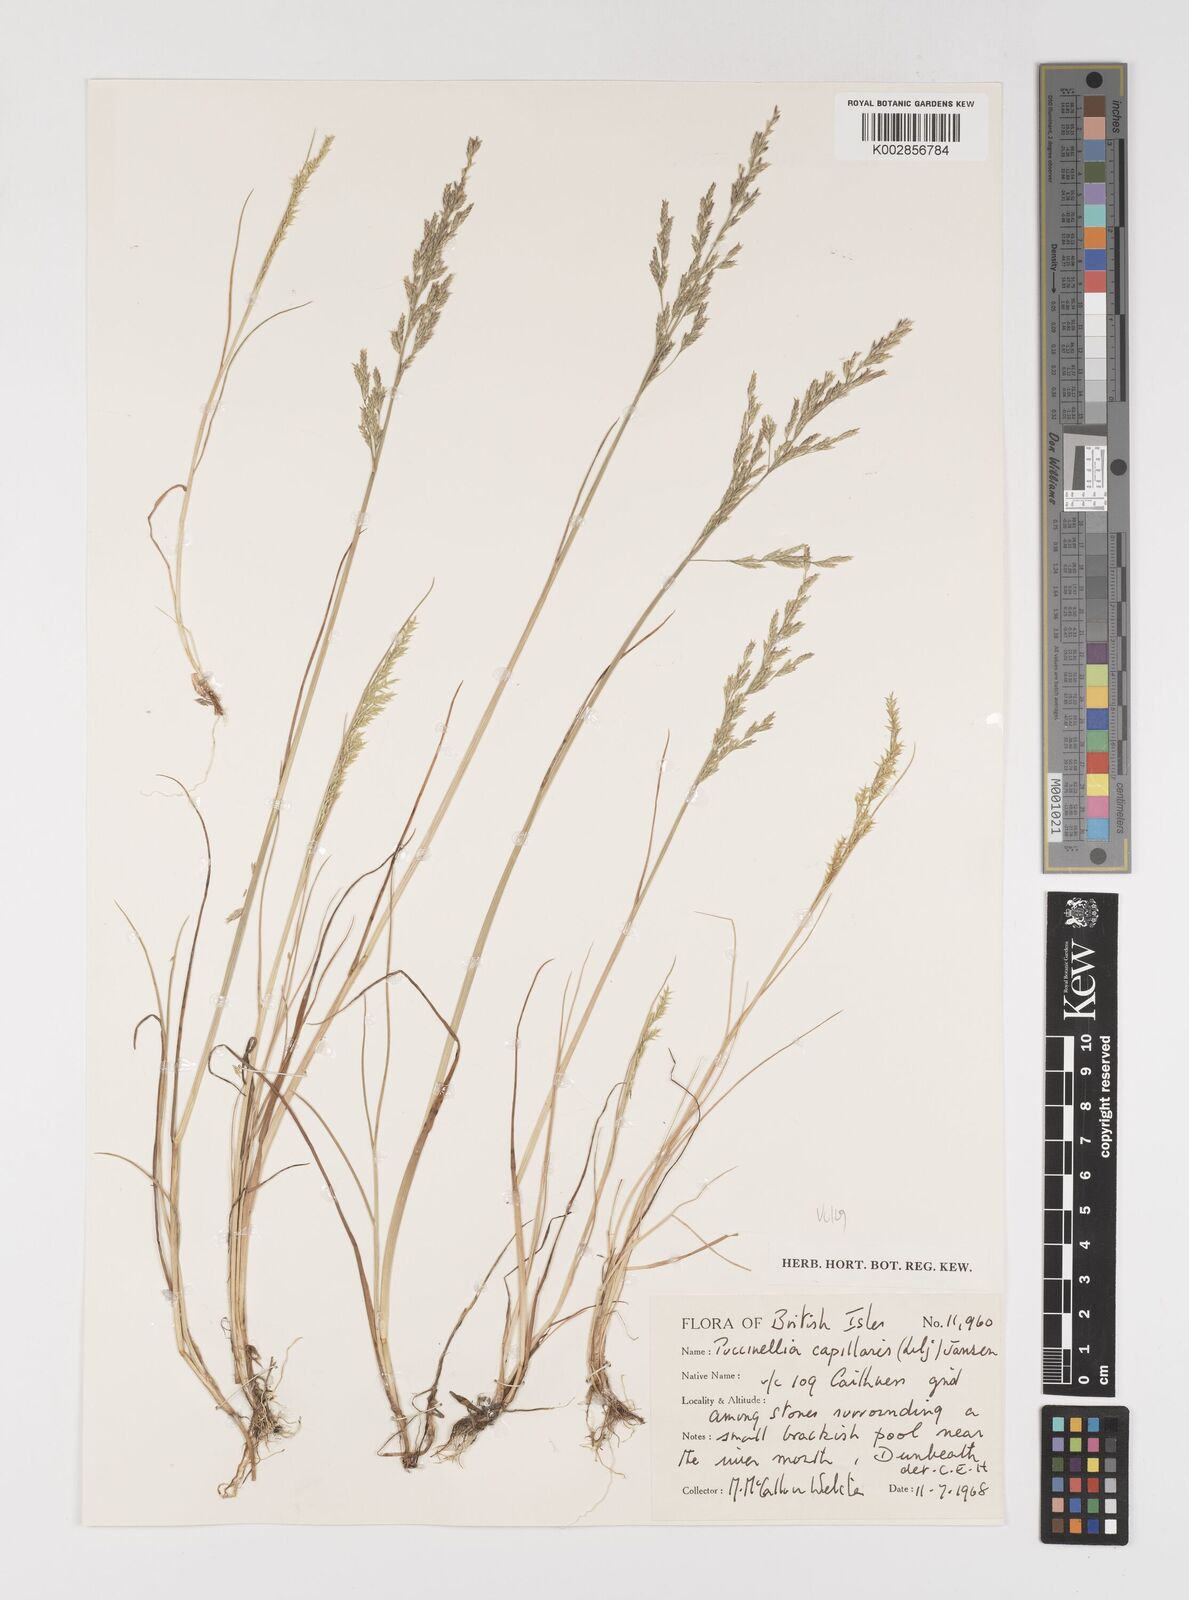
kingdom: Plantae
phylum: Tracheophyta
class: Liliopsida
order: Poales
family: Poaceae
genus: Puccinellia
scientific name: Puccinellia distans
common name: Weeping alkaligrass
